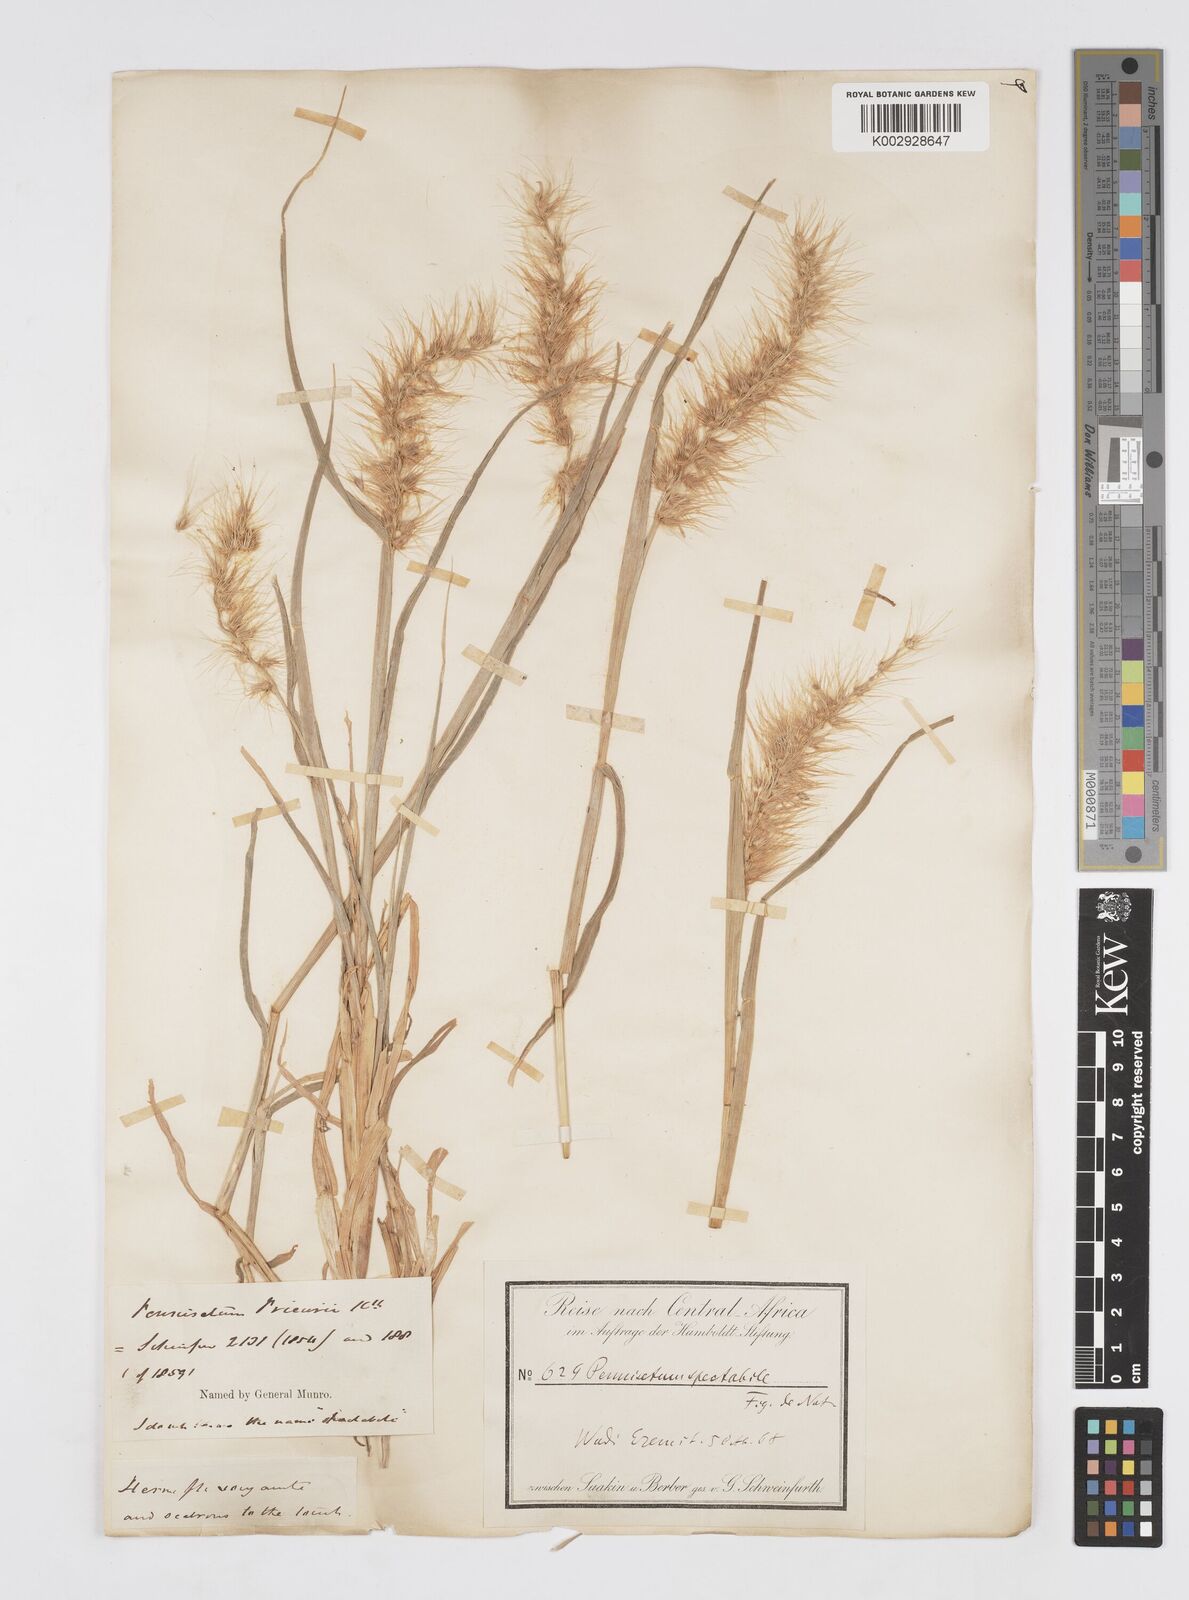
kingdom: Plantae
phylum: Tracheophyta
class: Liliopsida
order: Poales
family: Poaceae
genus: Cenchrus
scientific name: Cenchrus prieurii
